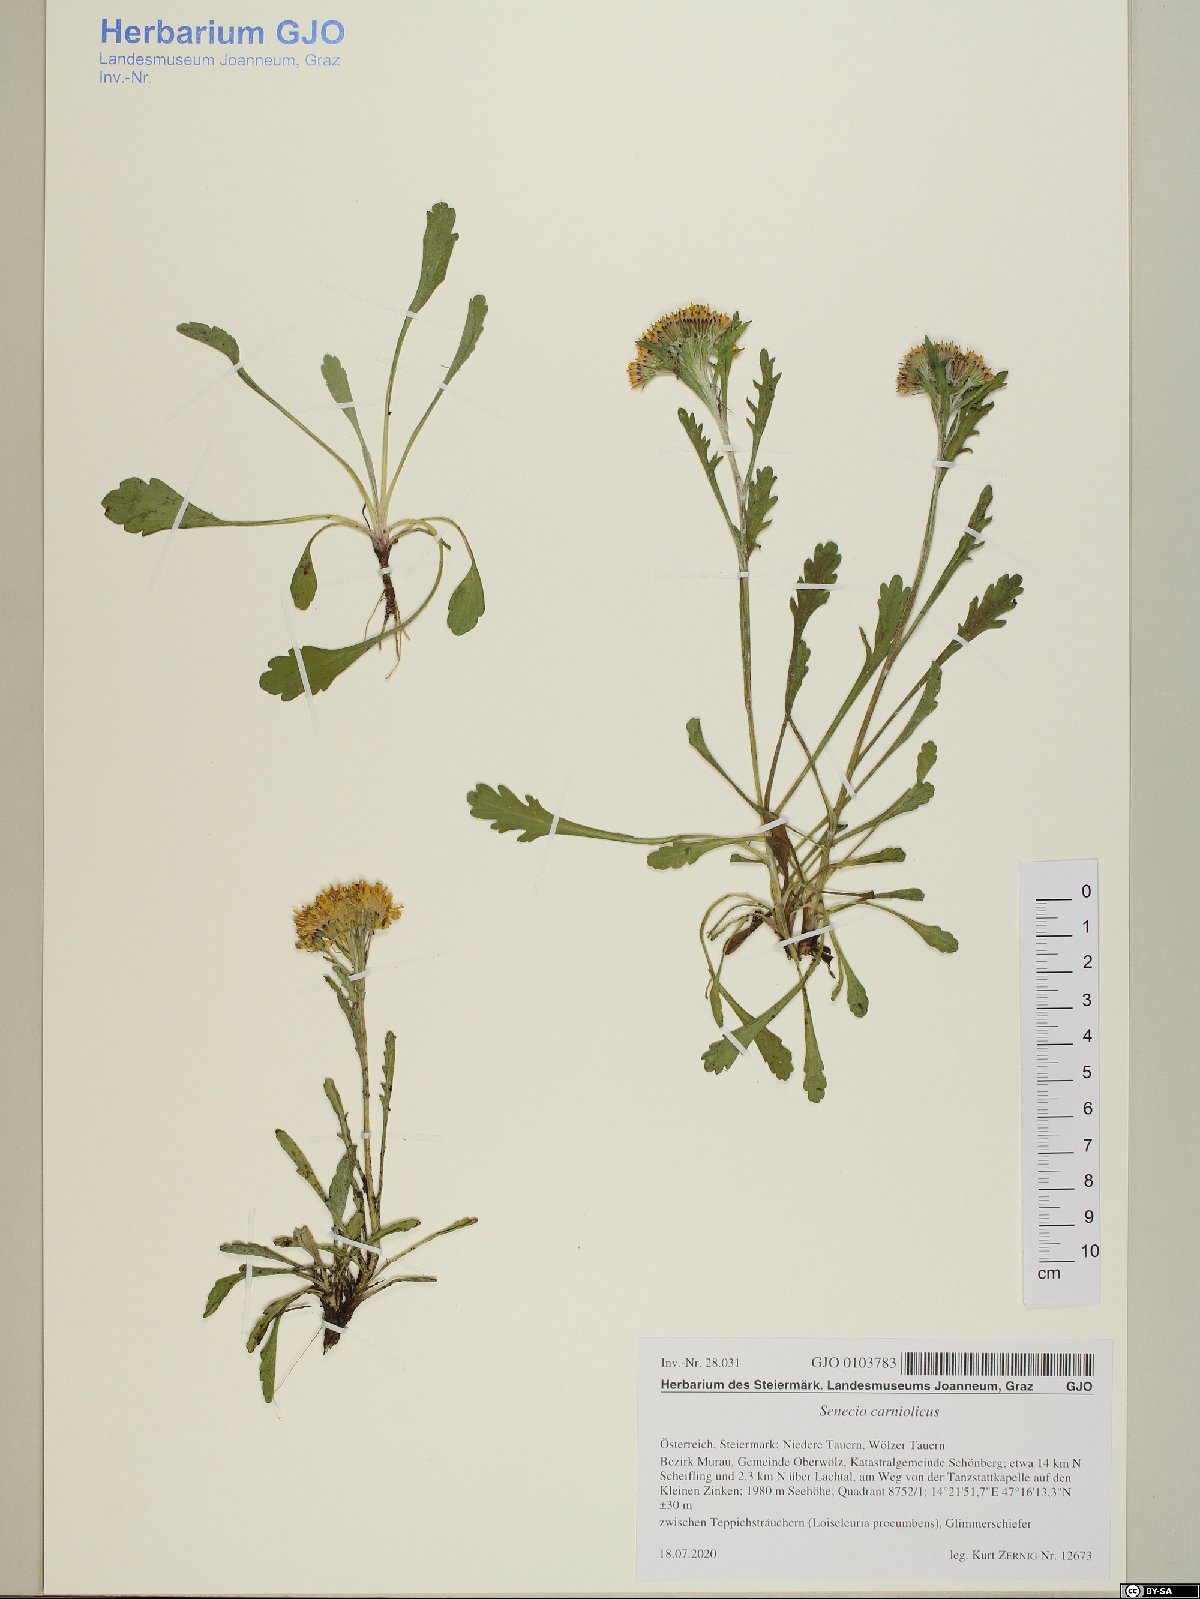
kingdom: Plantae
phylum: Tracheophyta
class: Magnoliopsida
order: Asterales
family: Asteraceae
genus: Jacobaea
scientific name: Jacobaea carniolica
